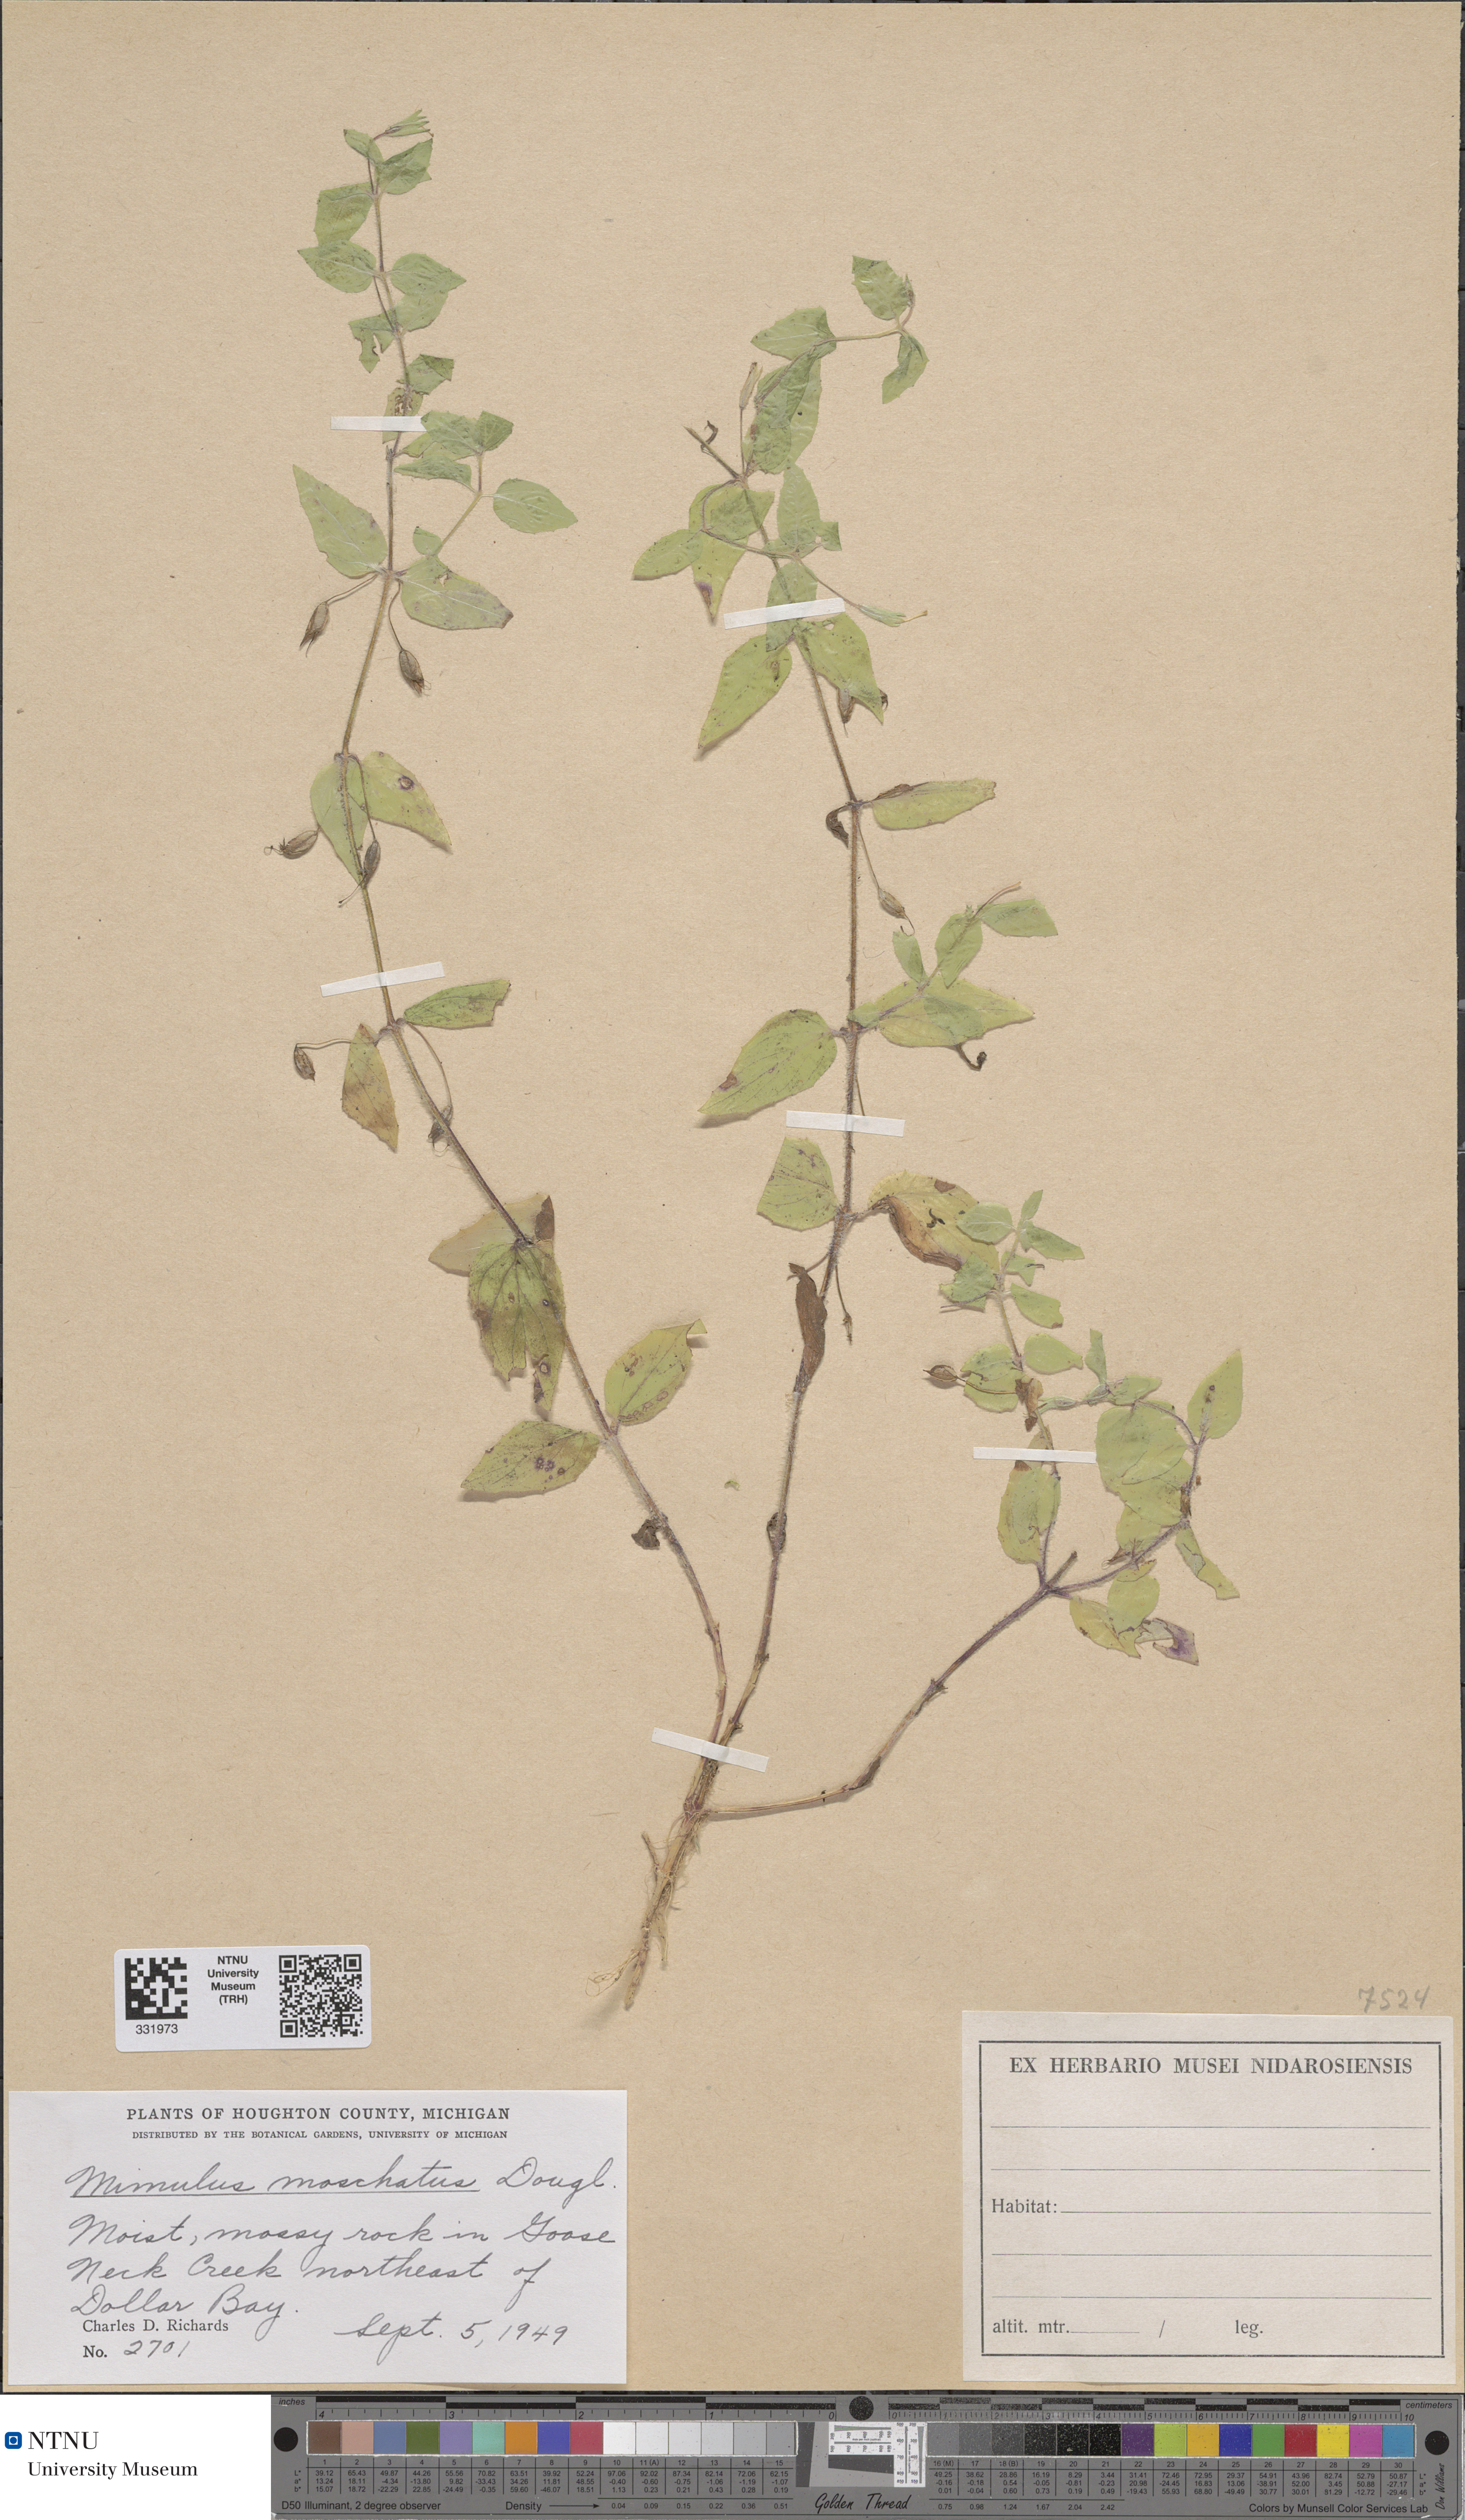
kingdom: Plantae
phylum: Tracheophyta
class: Magnoliopsida
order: Lamiales
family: Phrymaceae
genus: Erythranthe
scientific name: Erythranthe moschata
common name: Muskflower
